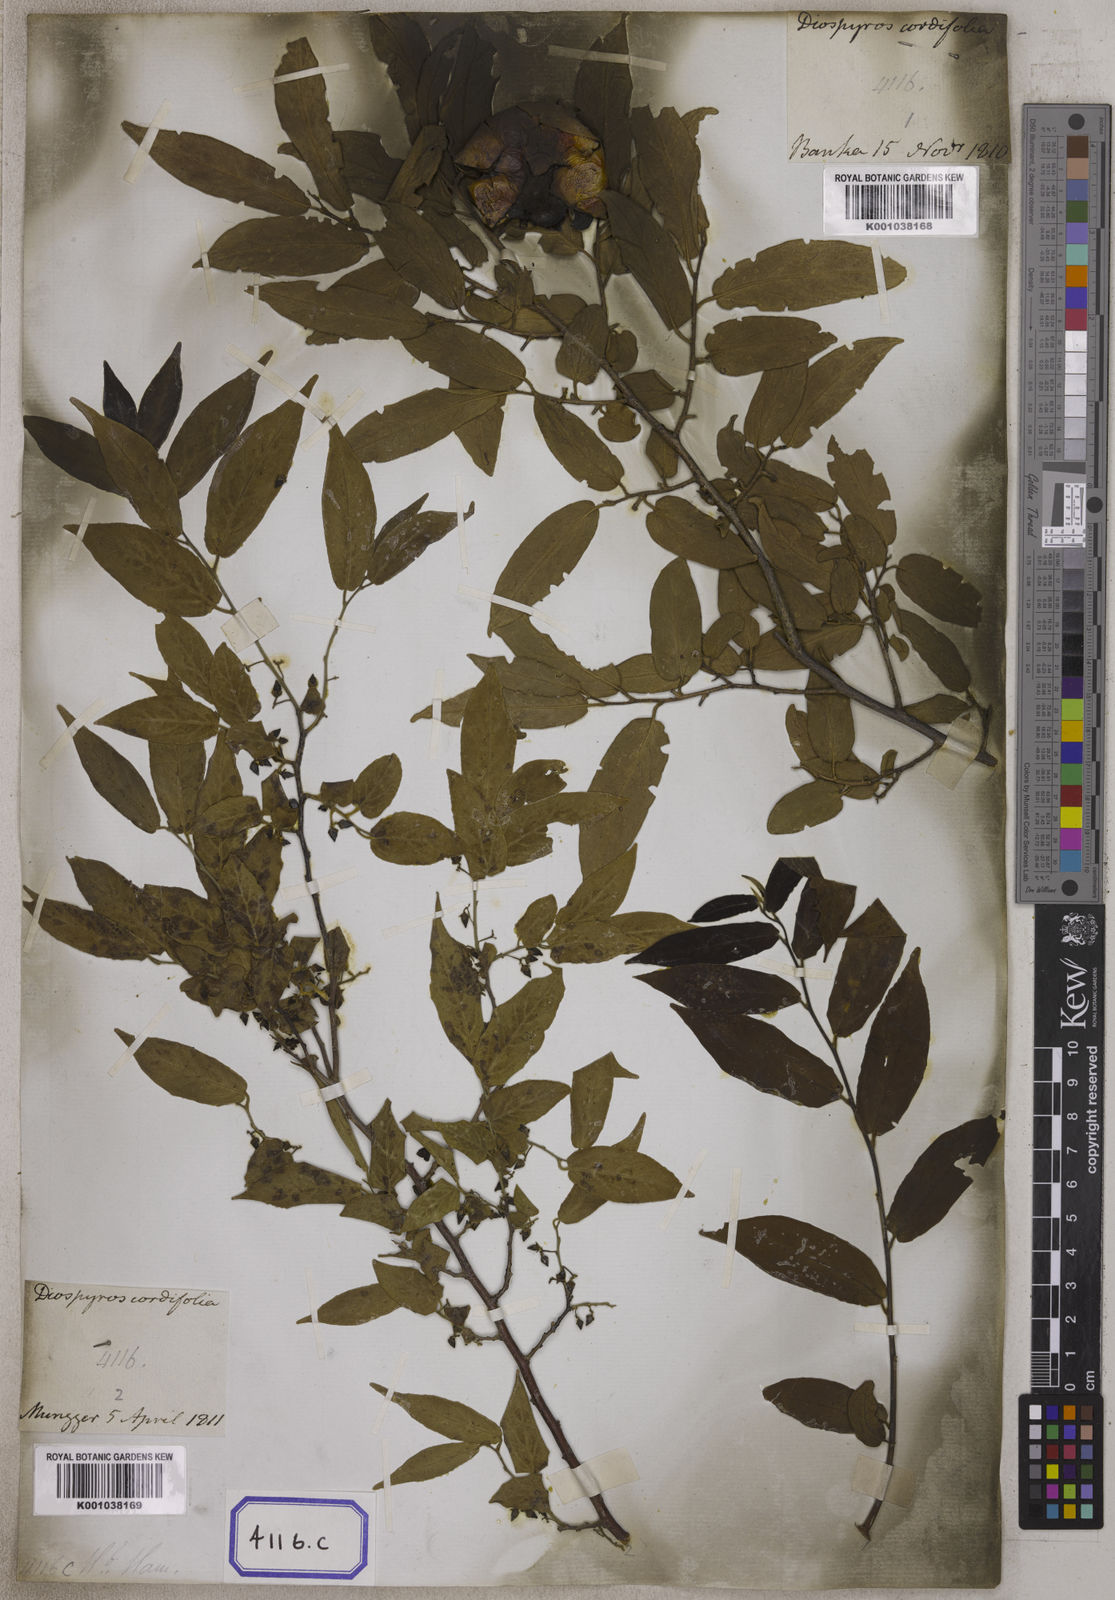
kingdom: Plantae
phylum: Tracheophyta
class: Magnoliopsida
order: Ericales
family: Ebenaceae
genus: Diospyros
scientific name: Diospyros montana
